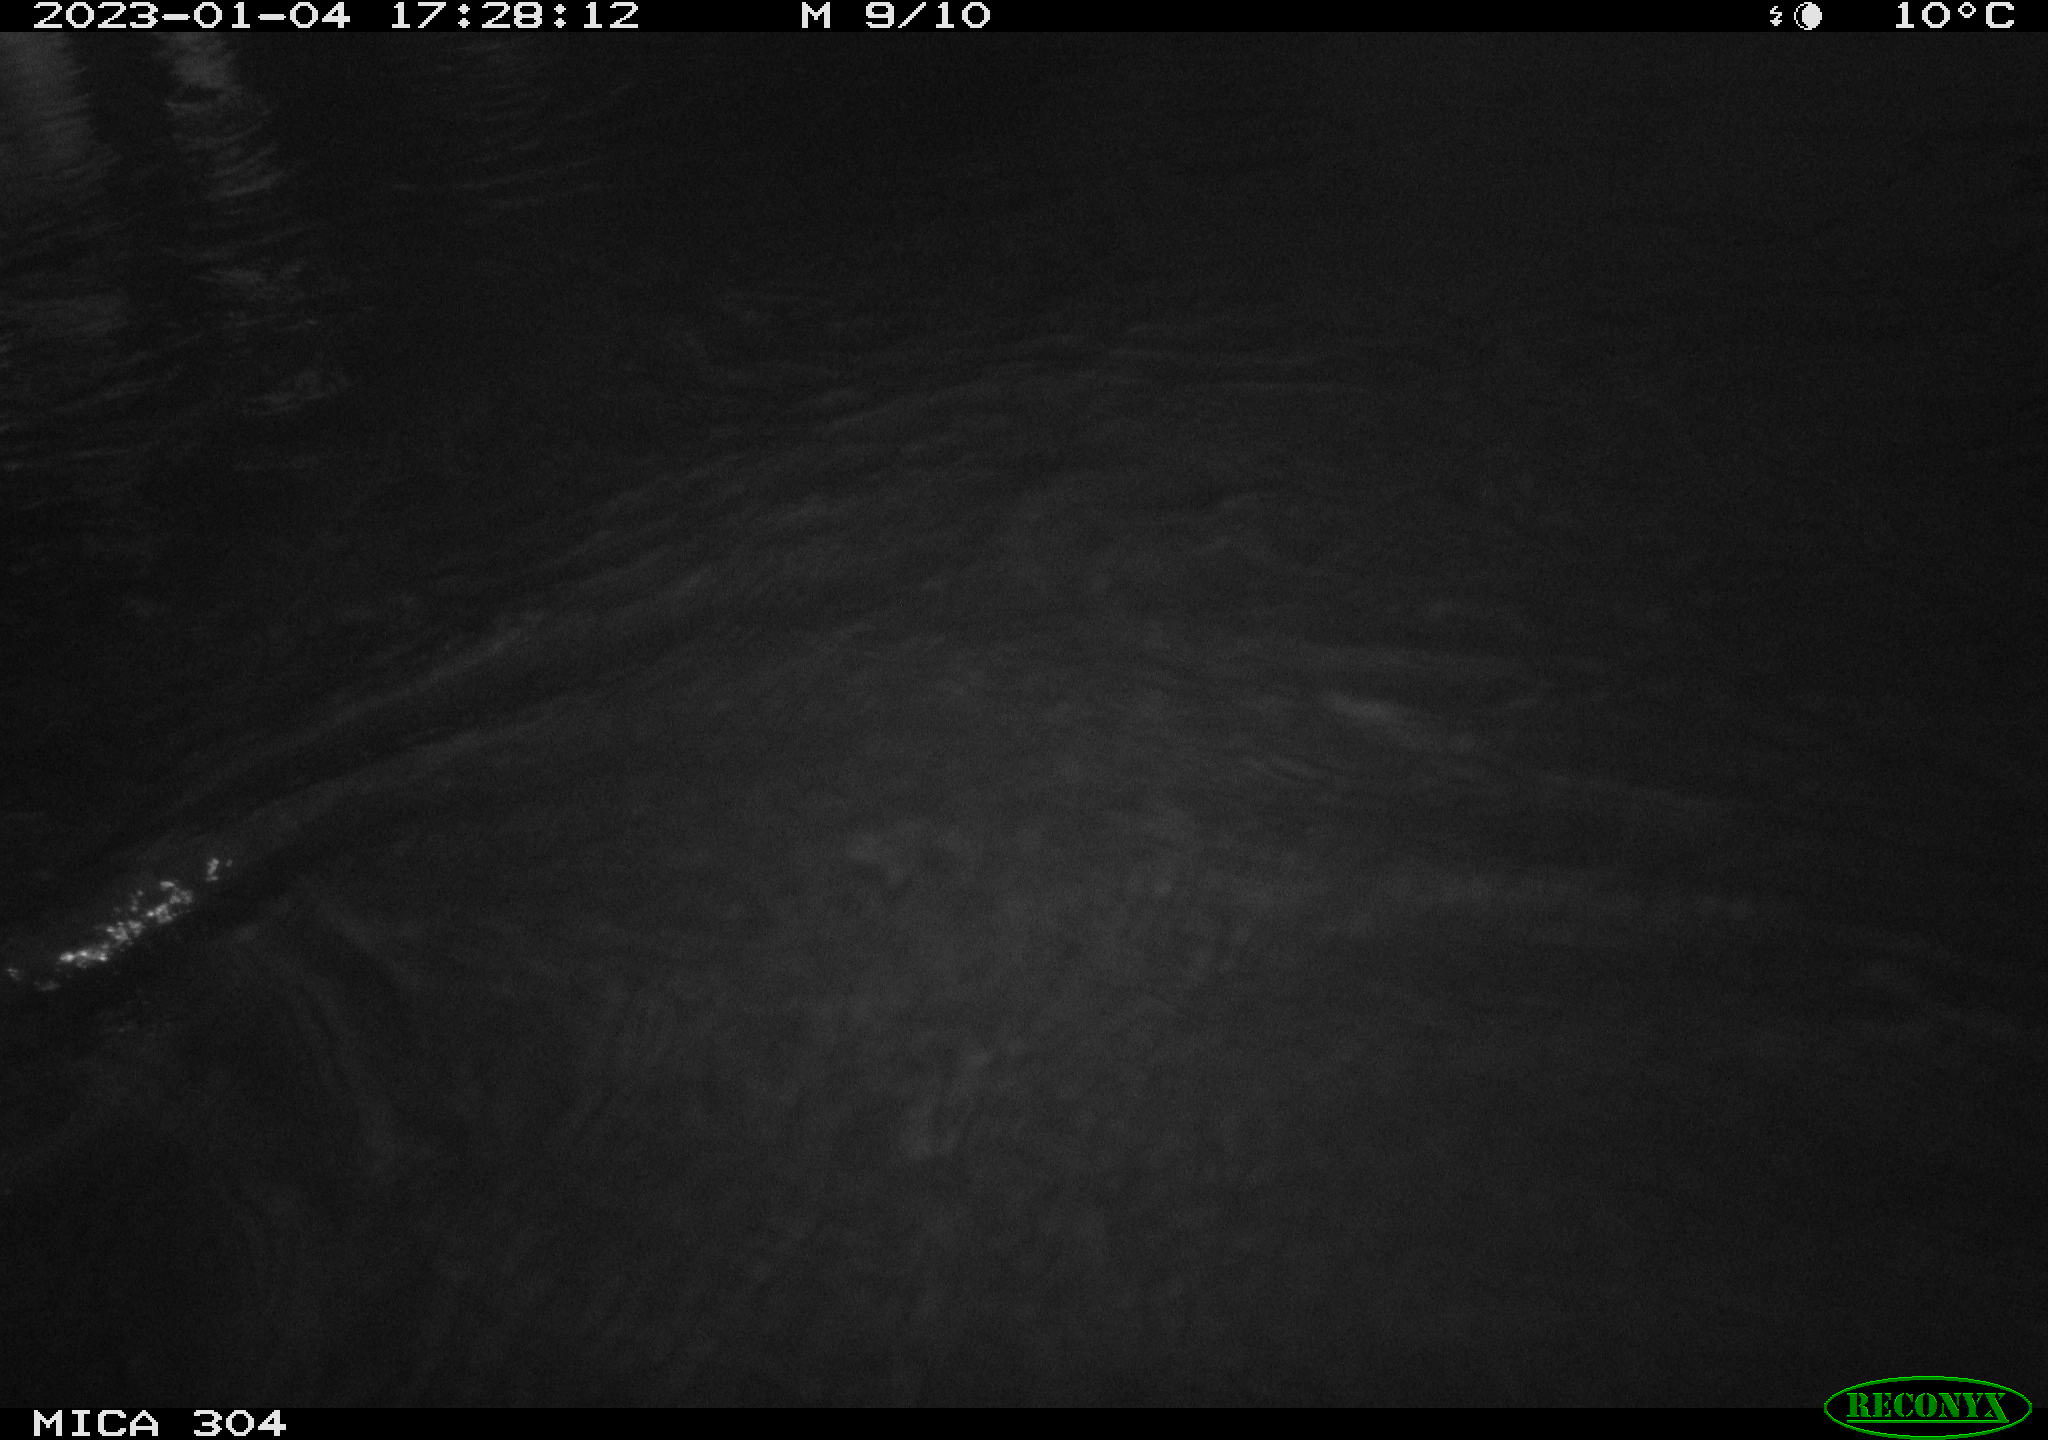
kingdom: Animalia
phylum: Chordata
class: Aves
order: Anseriformes
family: Anatidae
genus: Anas
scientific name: Anas
